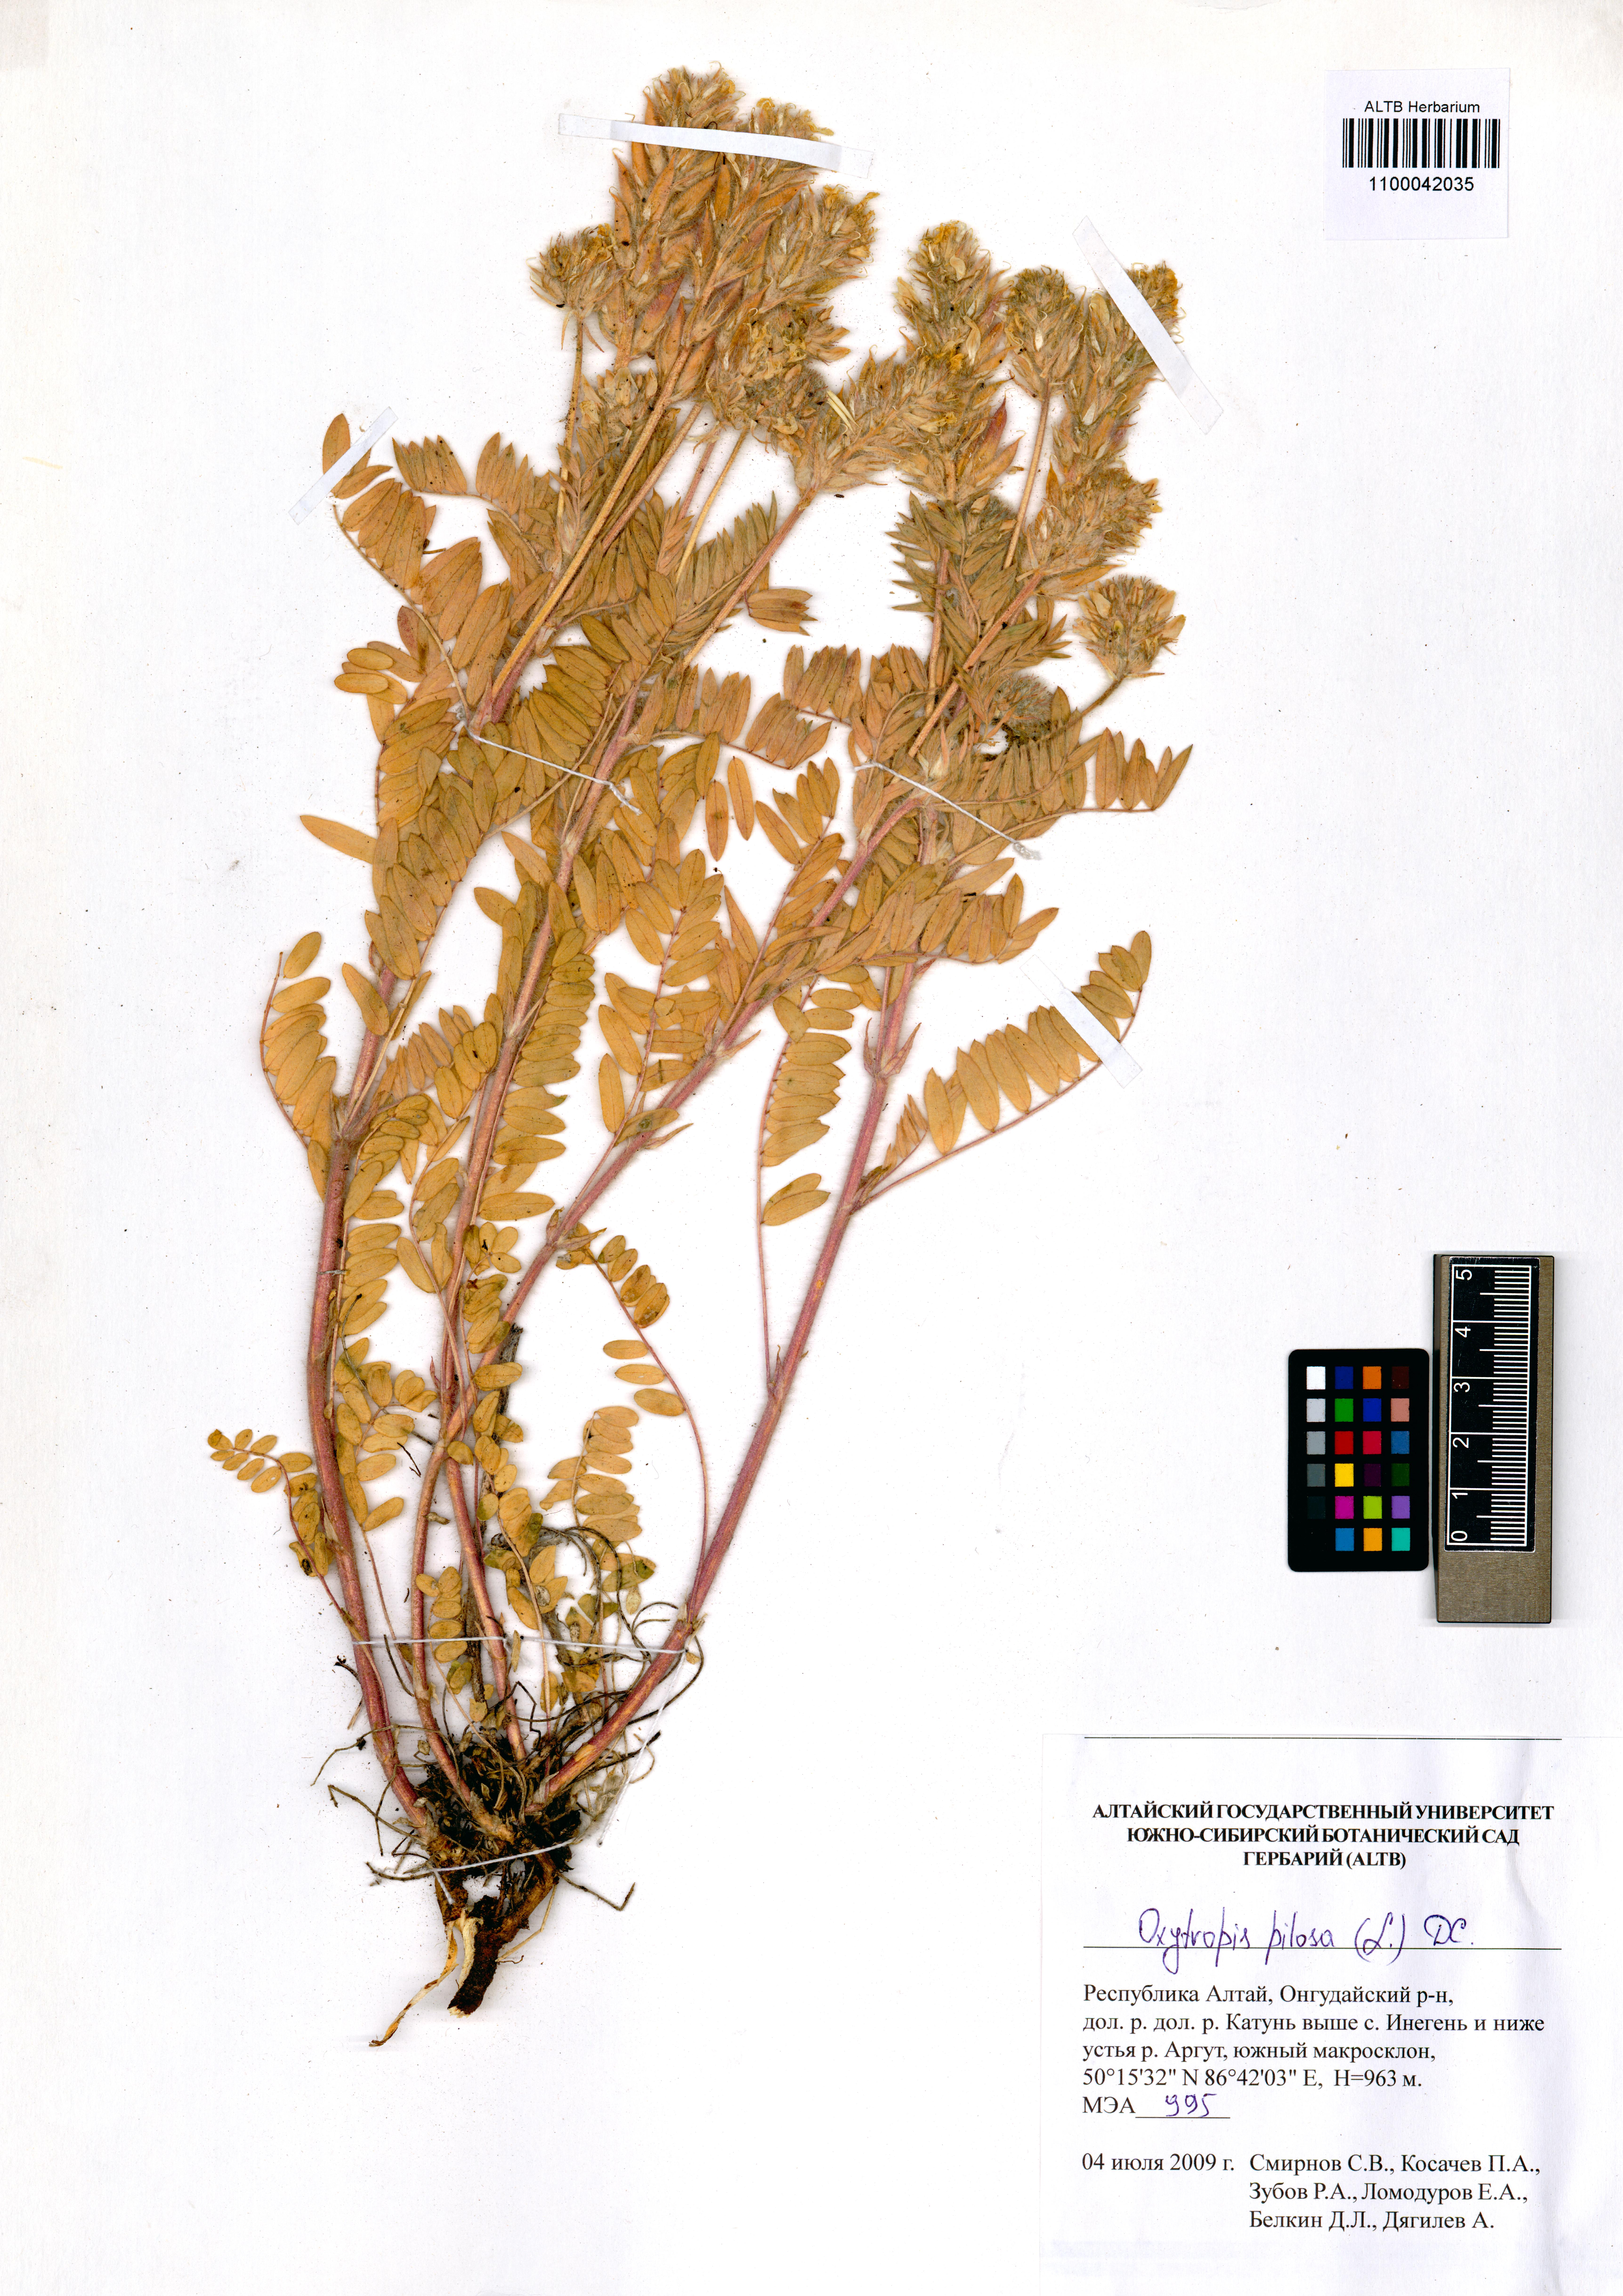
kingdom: Plantae
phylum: Tracheophyta
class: Magnoliopsida
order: Fabales
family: Fabaceae
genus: Oxytropis
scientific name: Oxytropis pilosa
